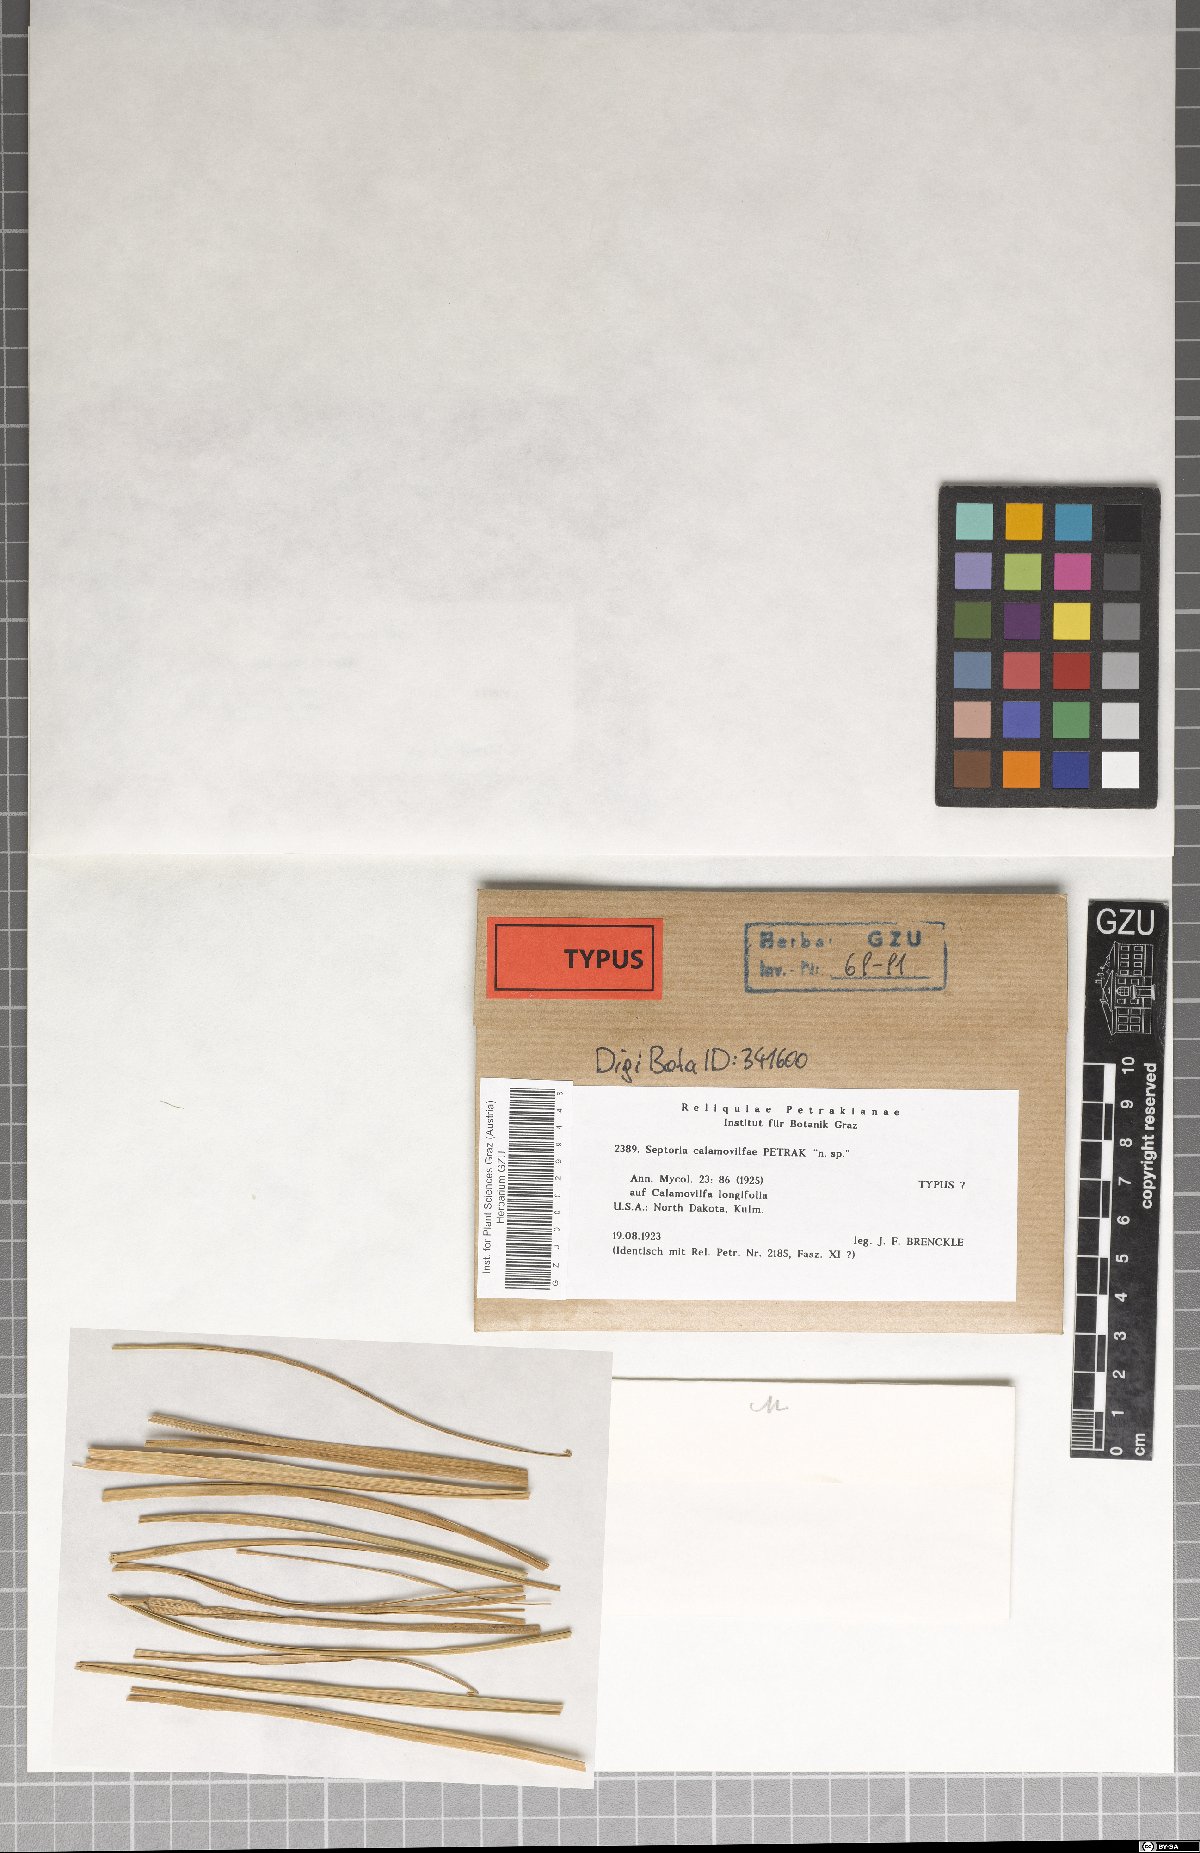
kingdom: Fungi
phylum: Ascomycota
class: Dothideomycetes
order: Mycosphaerellales
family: Mycosphaerellaceae
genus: Septoria
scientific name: Septoria
